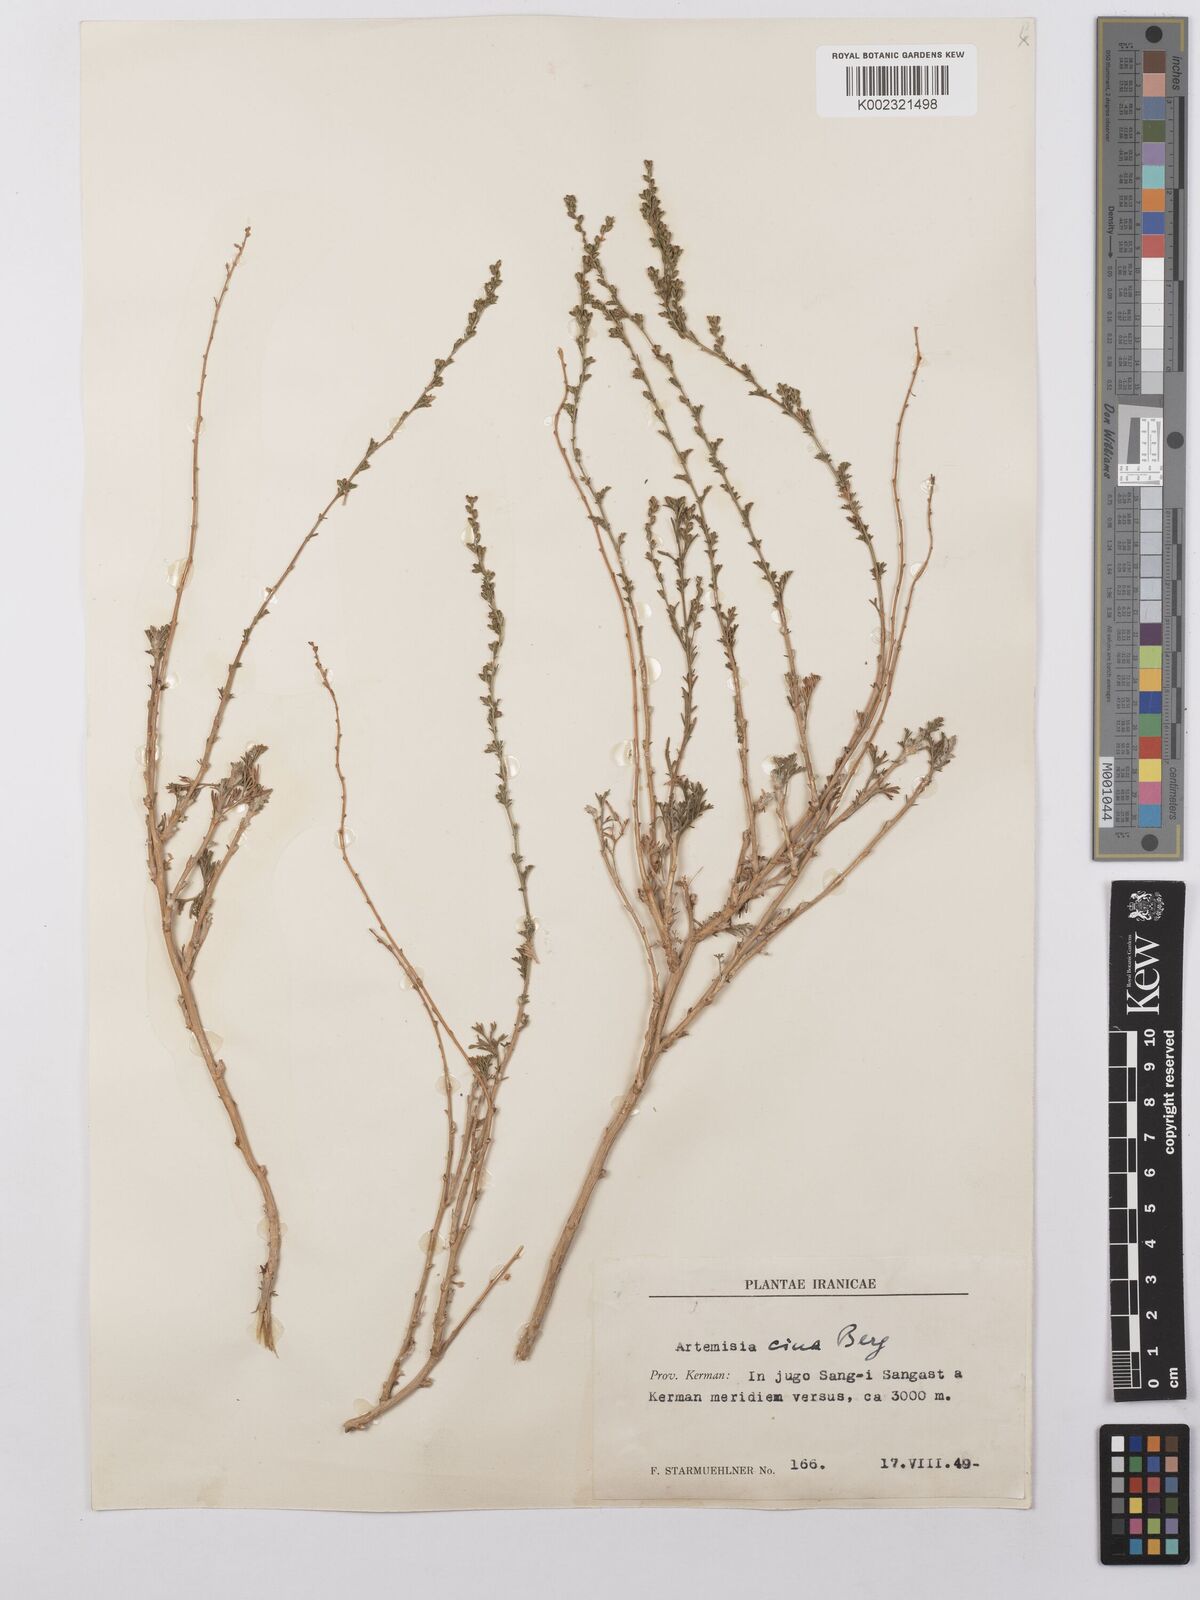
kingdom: Plantae
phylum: Tracheophyta
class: Magnoliopsida
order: Asterales
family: Asteraceae
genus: Artemisia
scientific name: Artemisia cina
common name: Levant wormseed
